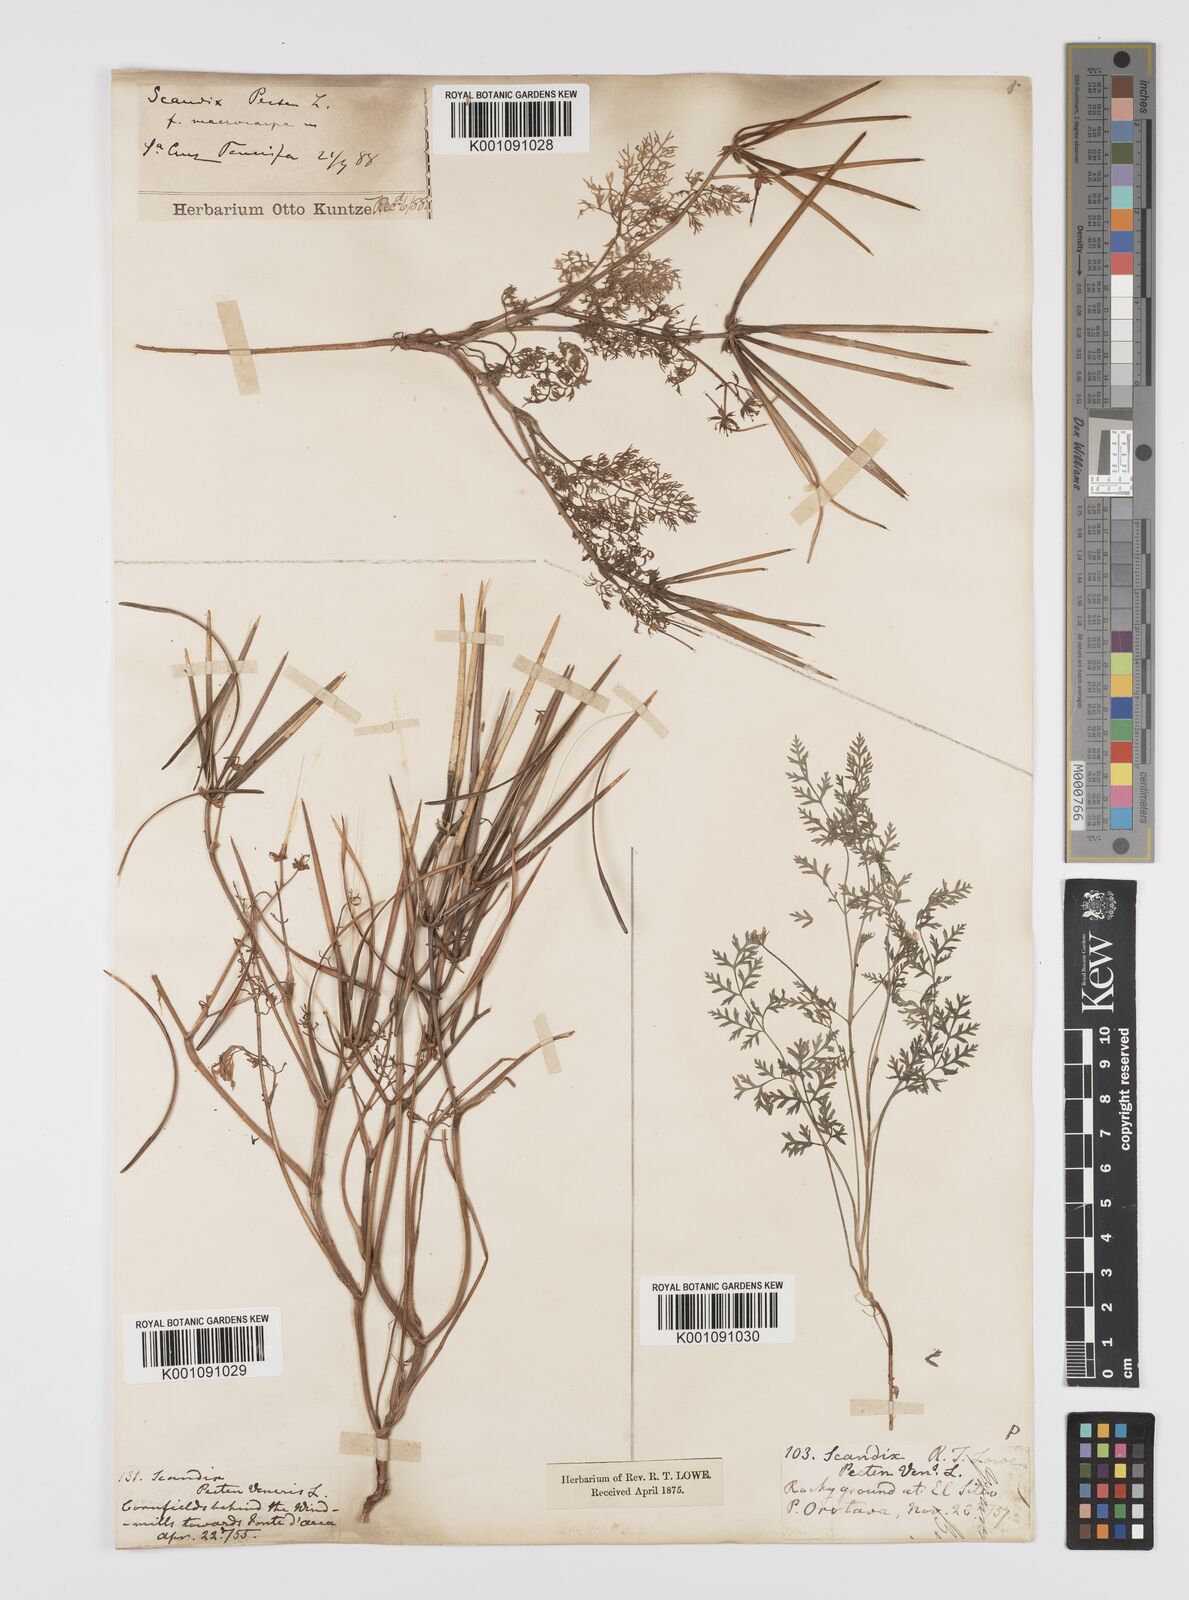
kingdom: Plantae
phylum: Tracheophyta
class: Magnoliopsida
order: Apiales
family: Apiaceae
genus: Scandix
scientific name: Scandix pecten-veneris
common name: Shepherd's-needle
